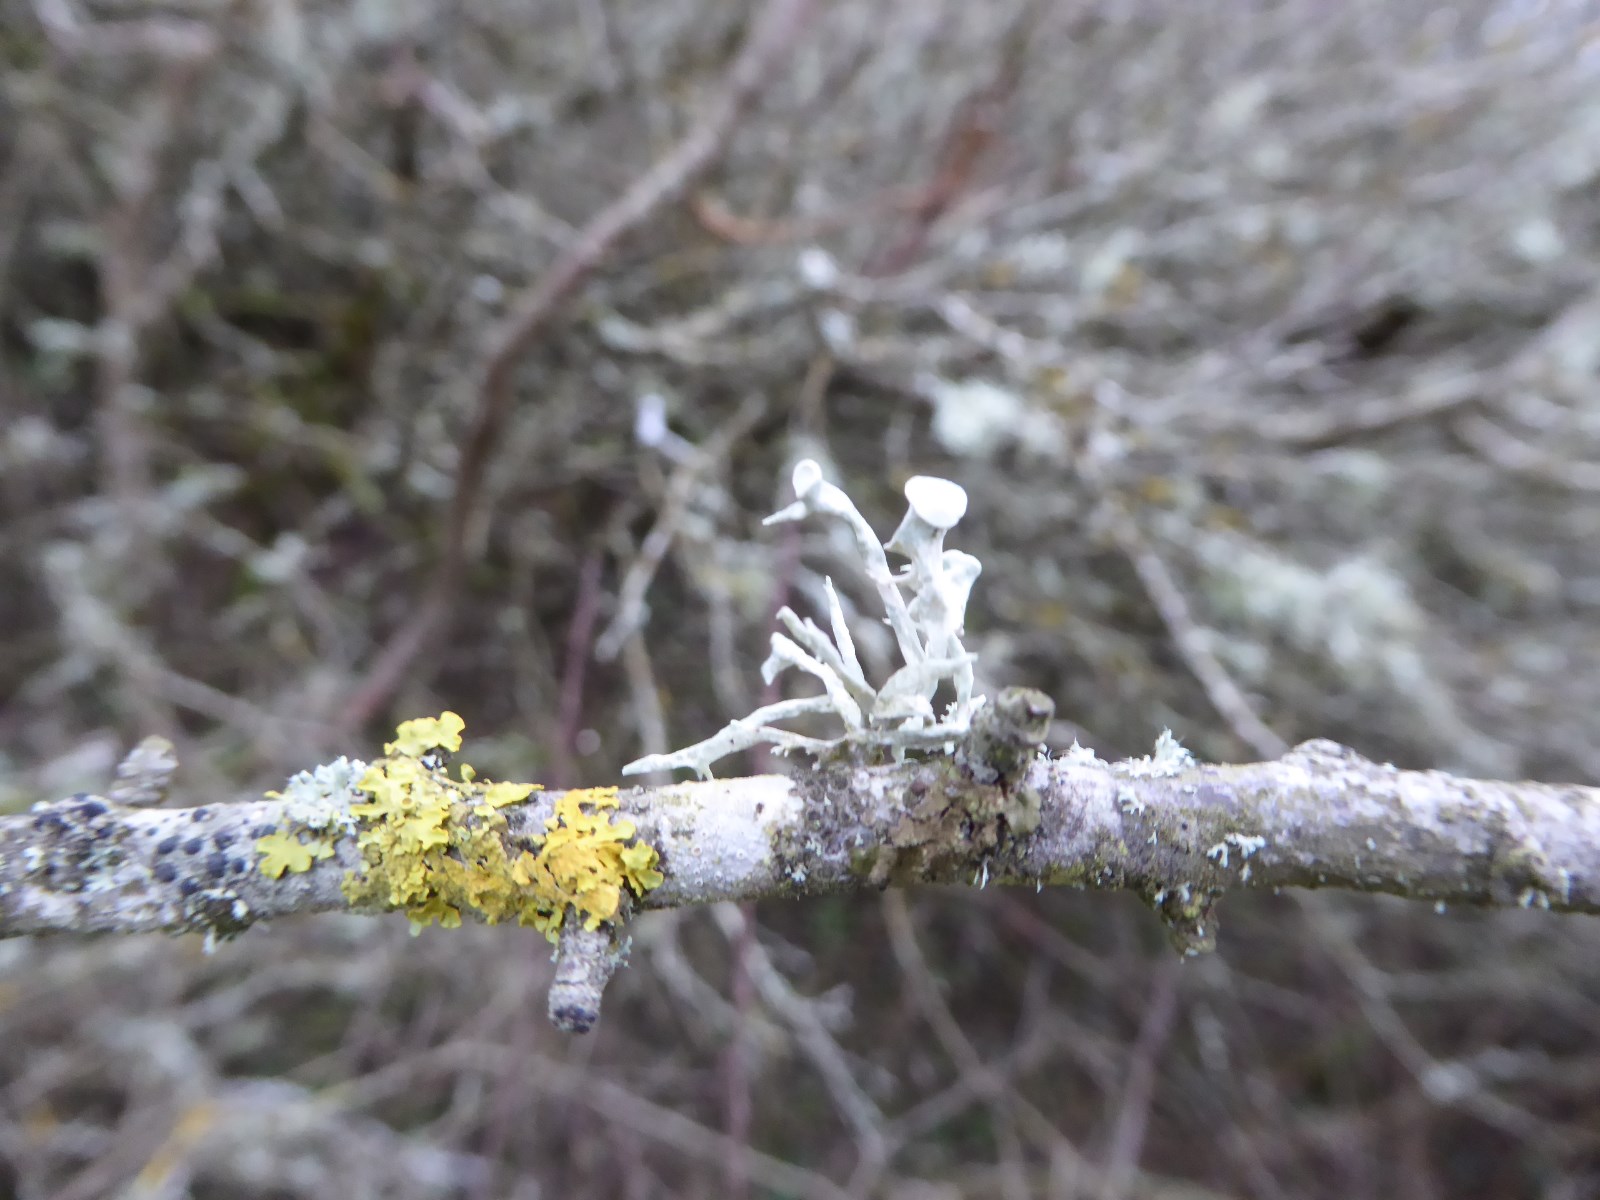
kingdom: Fungi
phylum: Ascomycota
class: Lecanoromycetes
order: Lecanorales
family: Ramalinaceae
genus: Ramalina
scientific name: Ramalina fastigiata
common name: tue-grenlav
